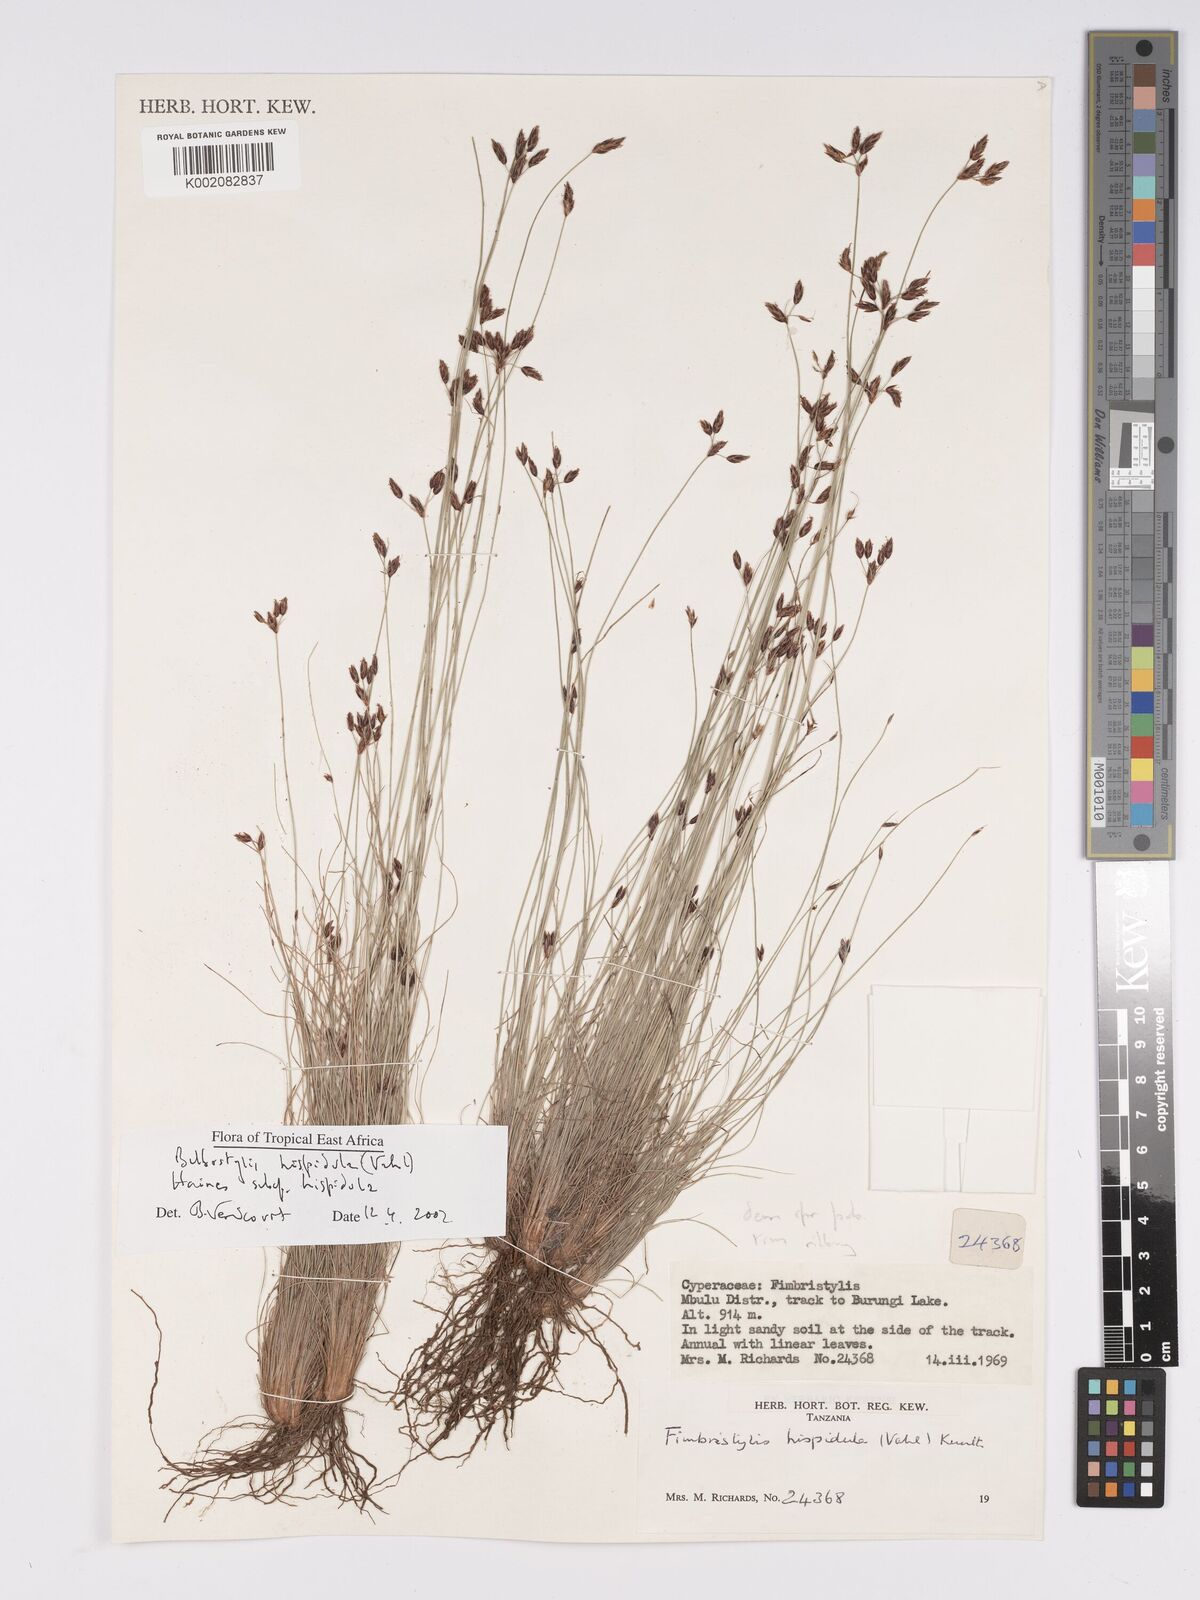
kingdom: Plantae
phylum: Tracheophyta
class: Liliopsida
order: Poales
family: Cyperaceae
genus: Bulbostylis
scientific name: Bulbostylis hispidula
